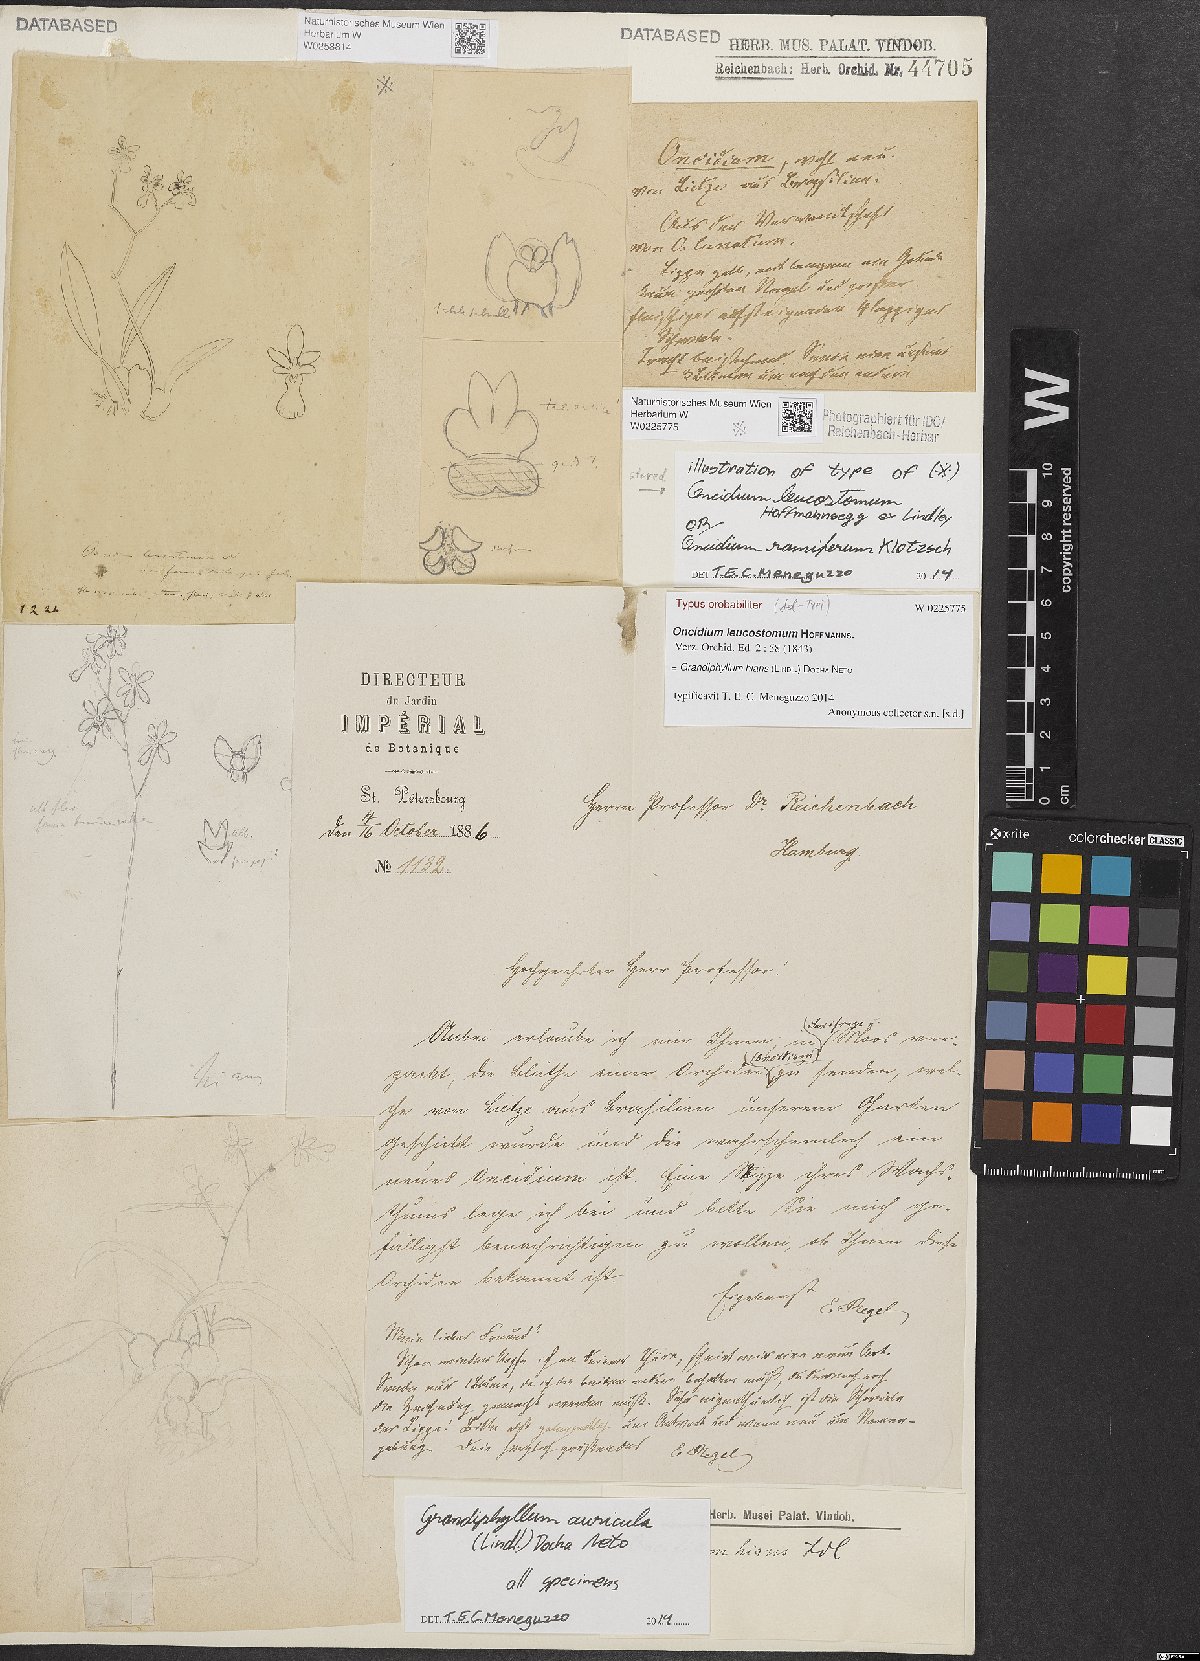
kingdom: Plantae
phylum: Tracheophyta
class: Liliopsida
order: Asparagales
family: Orchidaceae
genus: Grandiphyllum
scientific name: Grandiphyllum hians
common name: Mule-ear orchid
